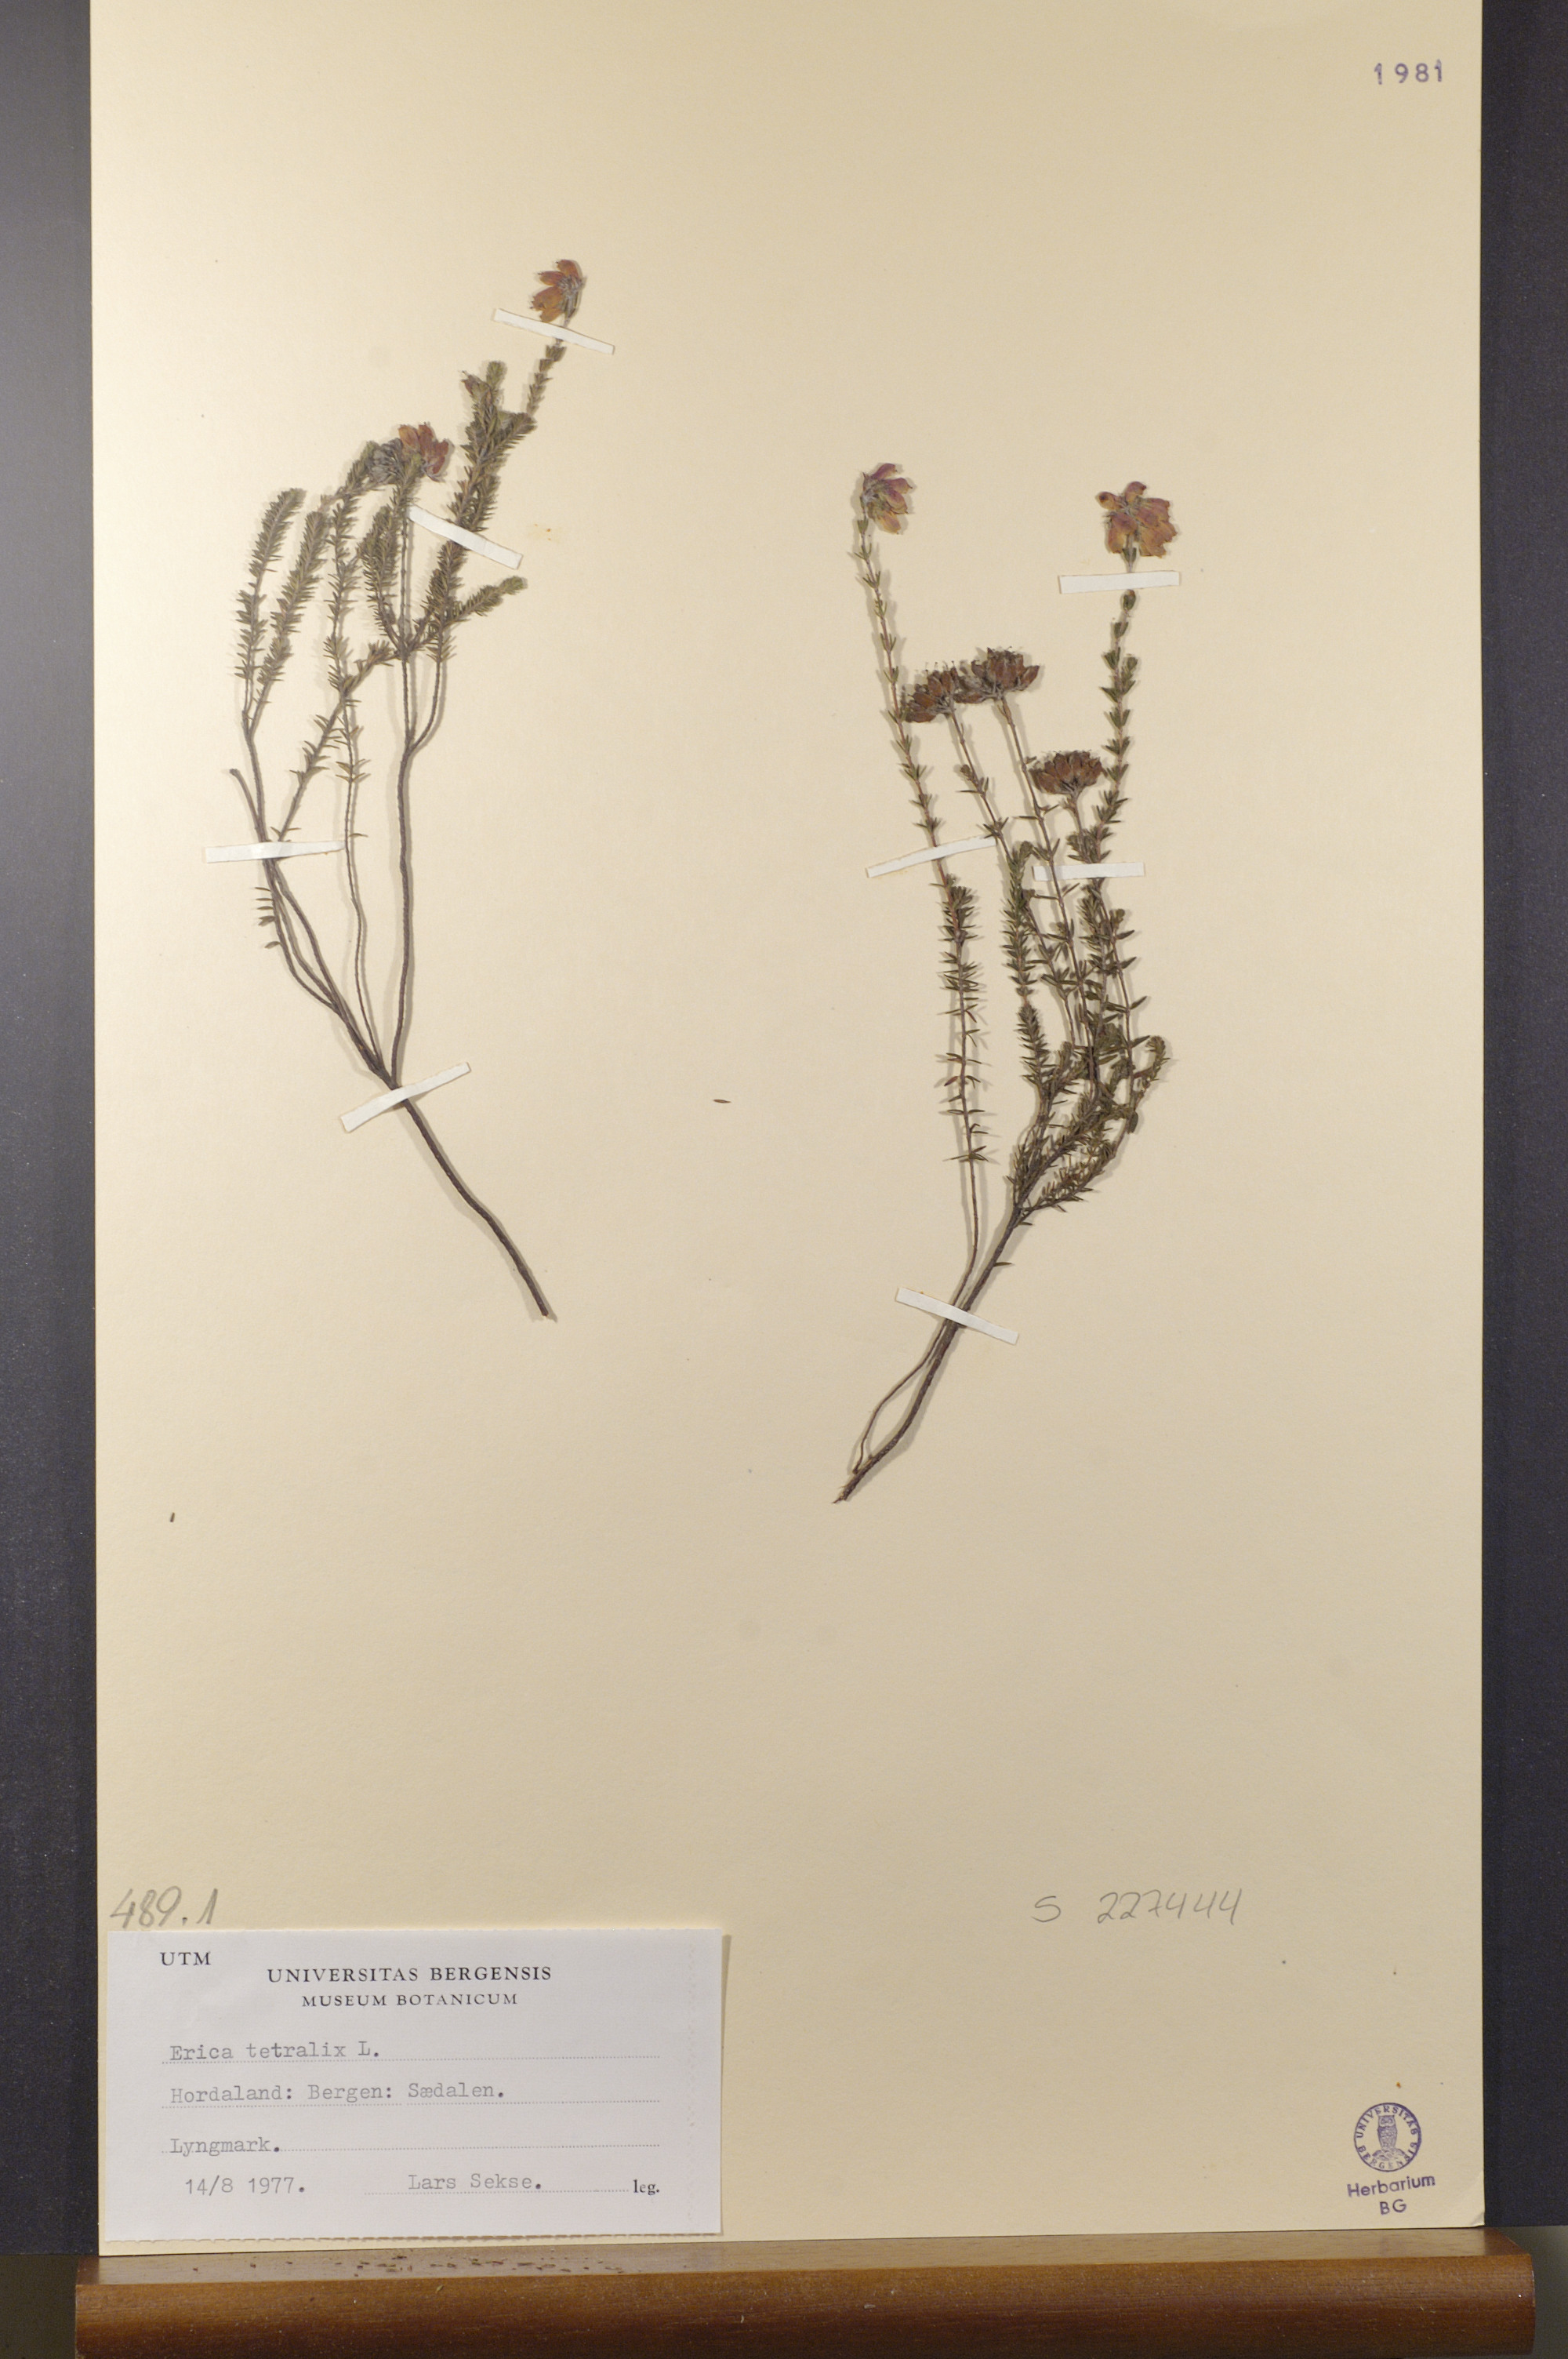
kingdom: Plantae
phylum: Tracheophyta
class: Magnoliopsida
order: Ericales
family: Ericaceae
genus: Erica
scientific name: Erica tetralix
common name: Cross-leaved heath
